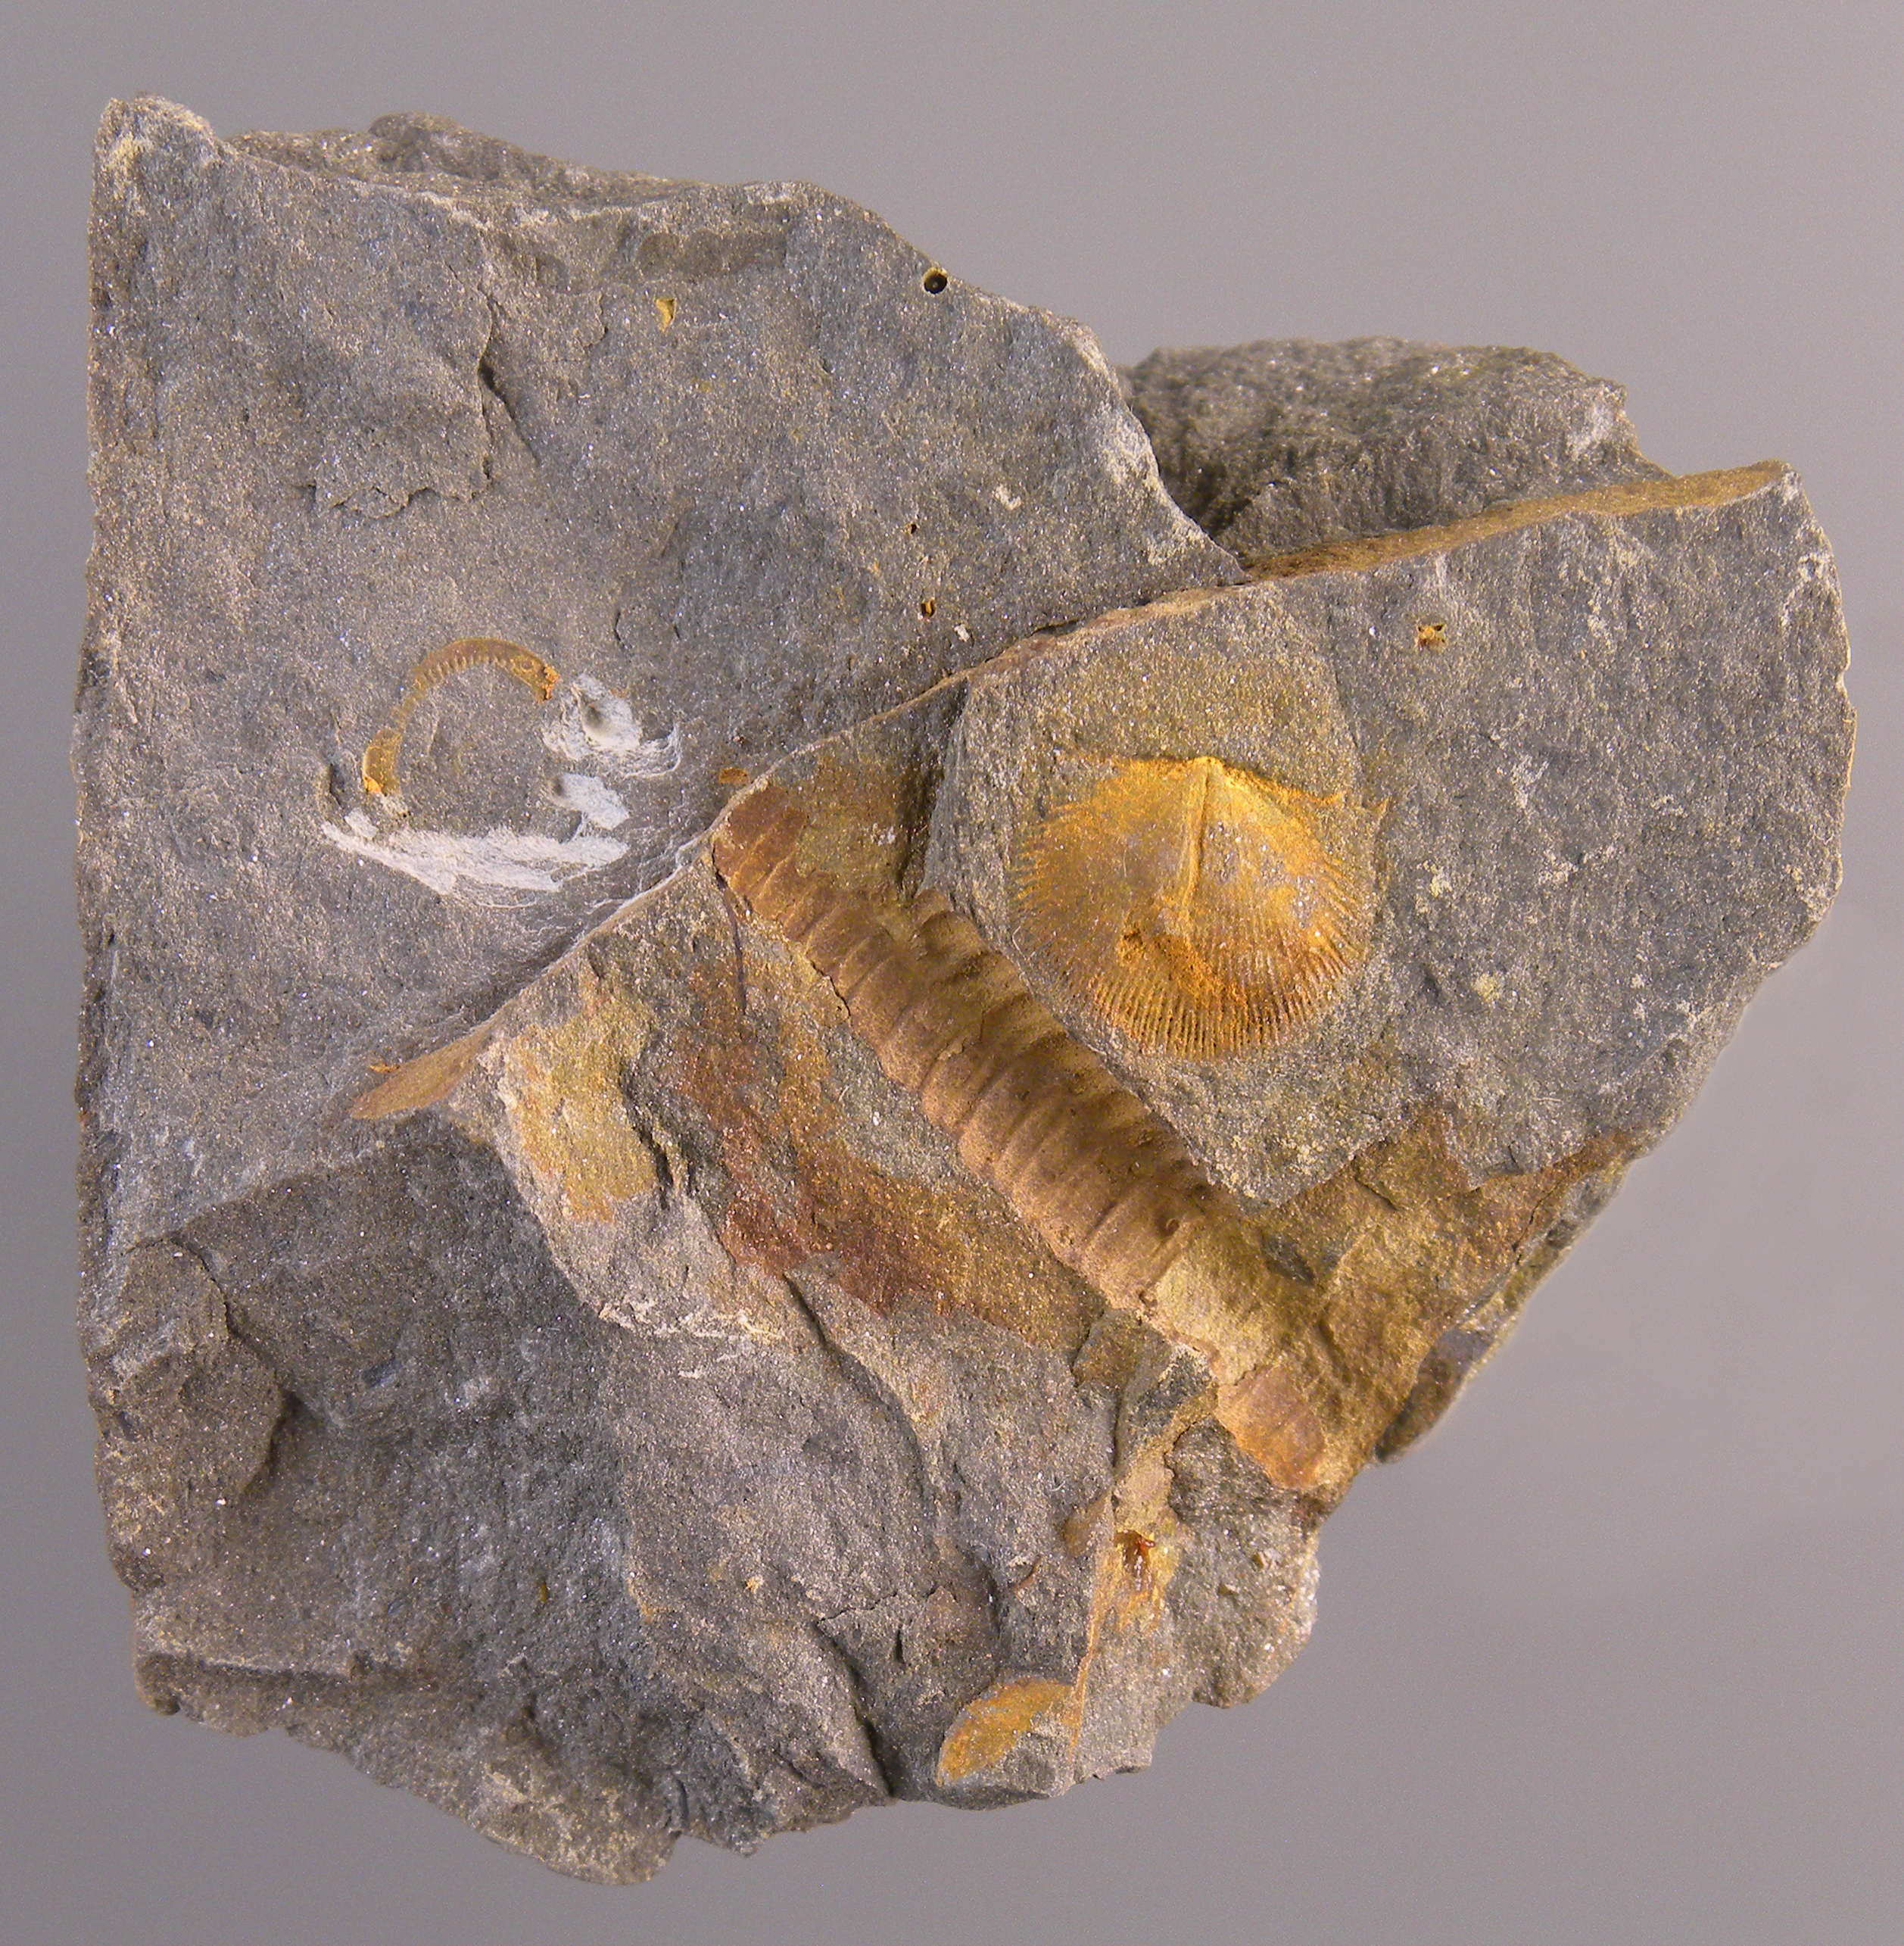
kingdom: Animalia
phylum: Echinodermata
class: Crinoidea
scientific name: Crinoidea
